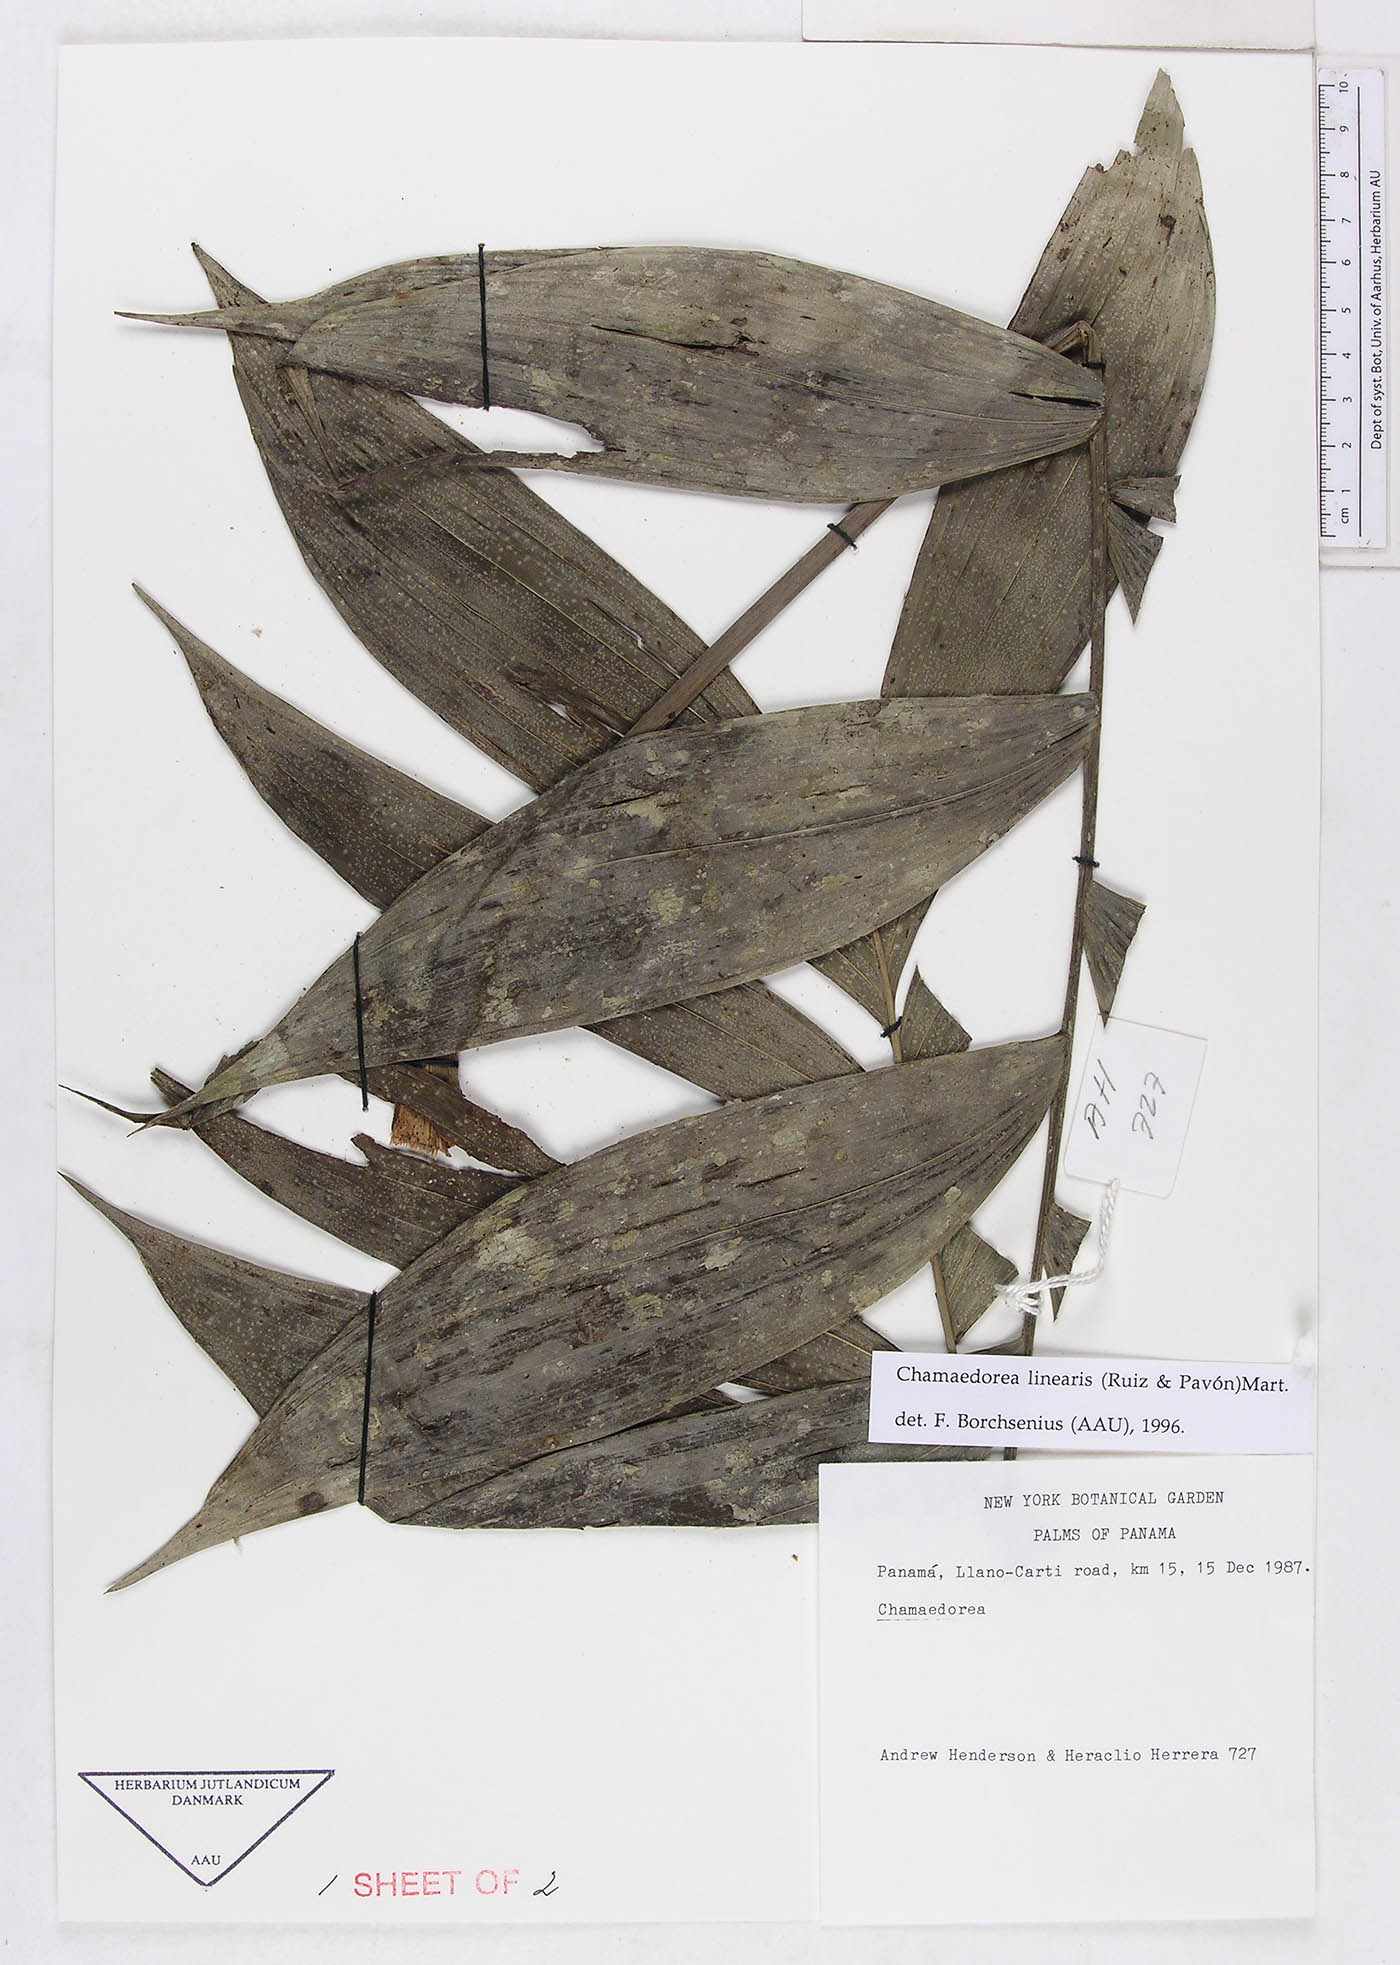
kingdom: Plantae
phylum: Tracheophyta
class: Liliopsida
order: Arecales
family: Arecaceae
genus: Chamaedorea
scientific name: Chamaedorea linearis
